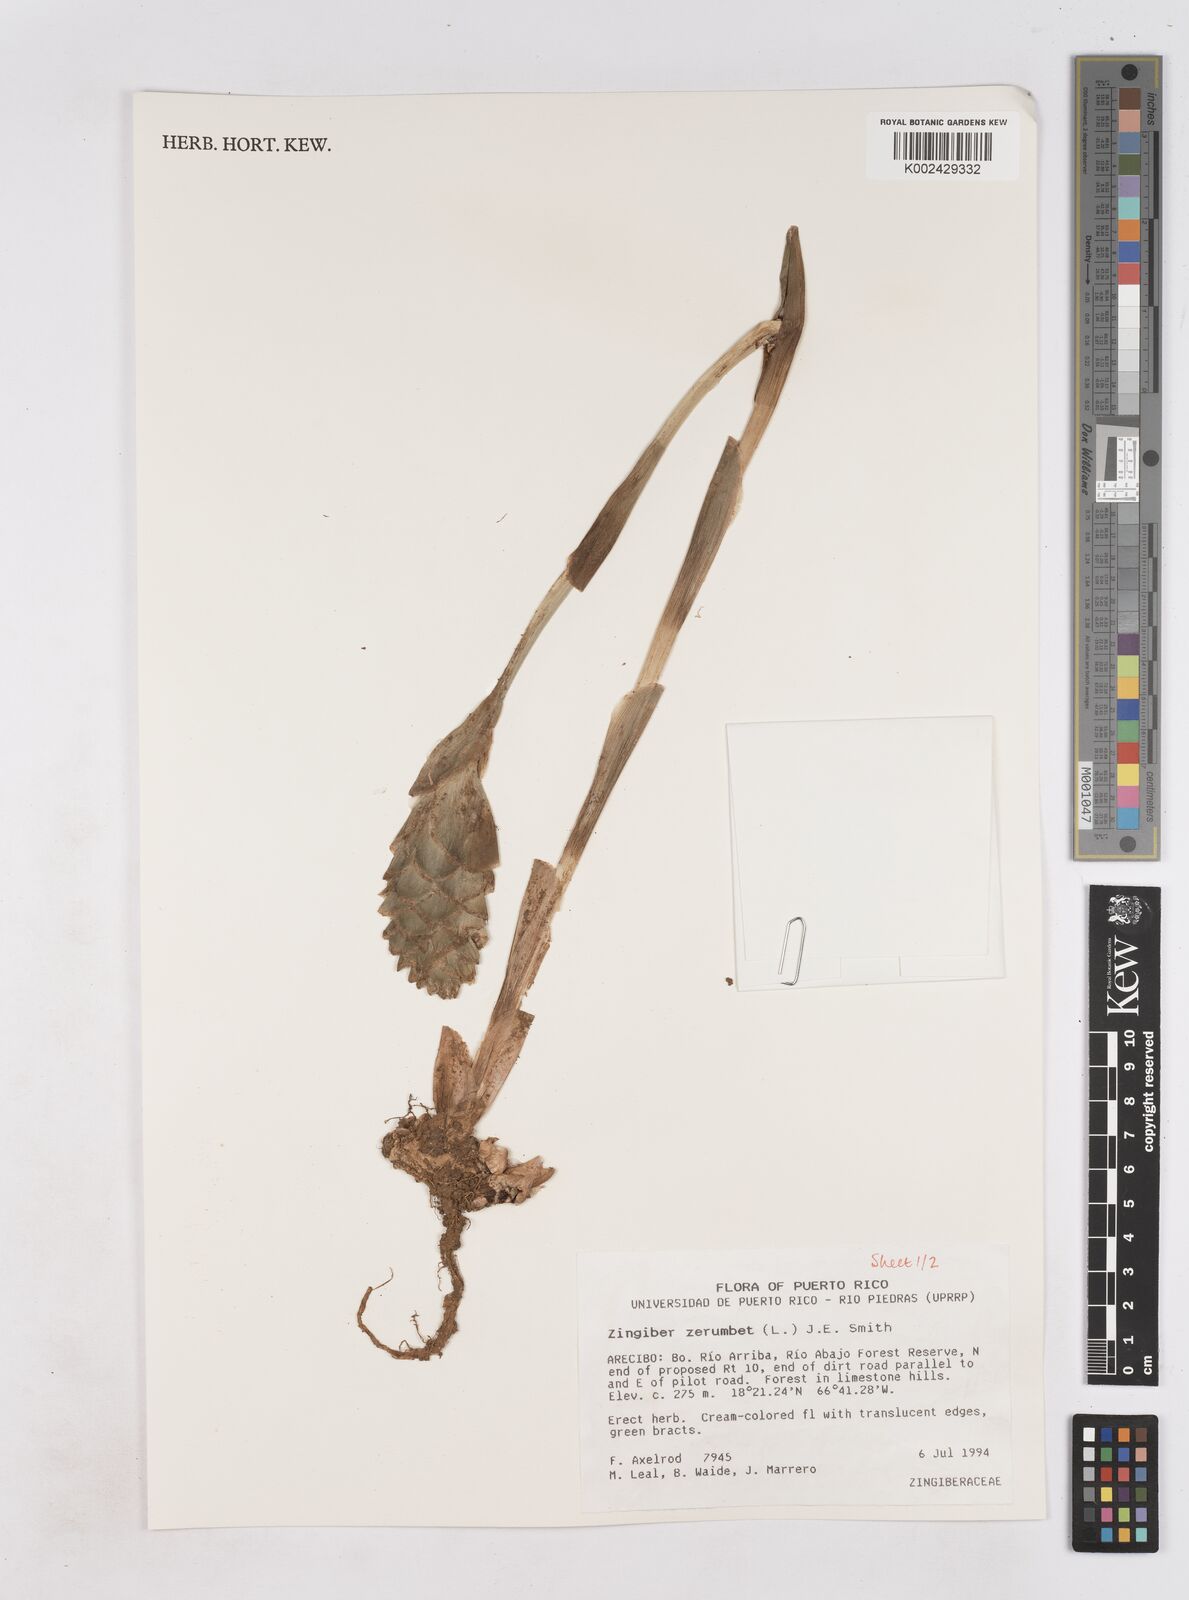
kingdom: Plantae
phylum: Tracheophyta
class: Liliopsida
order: Zingiberales
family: Zingiberaceae
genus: Zingiber
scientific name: Zingiber zerumbet
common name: Bitter ginger
